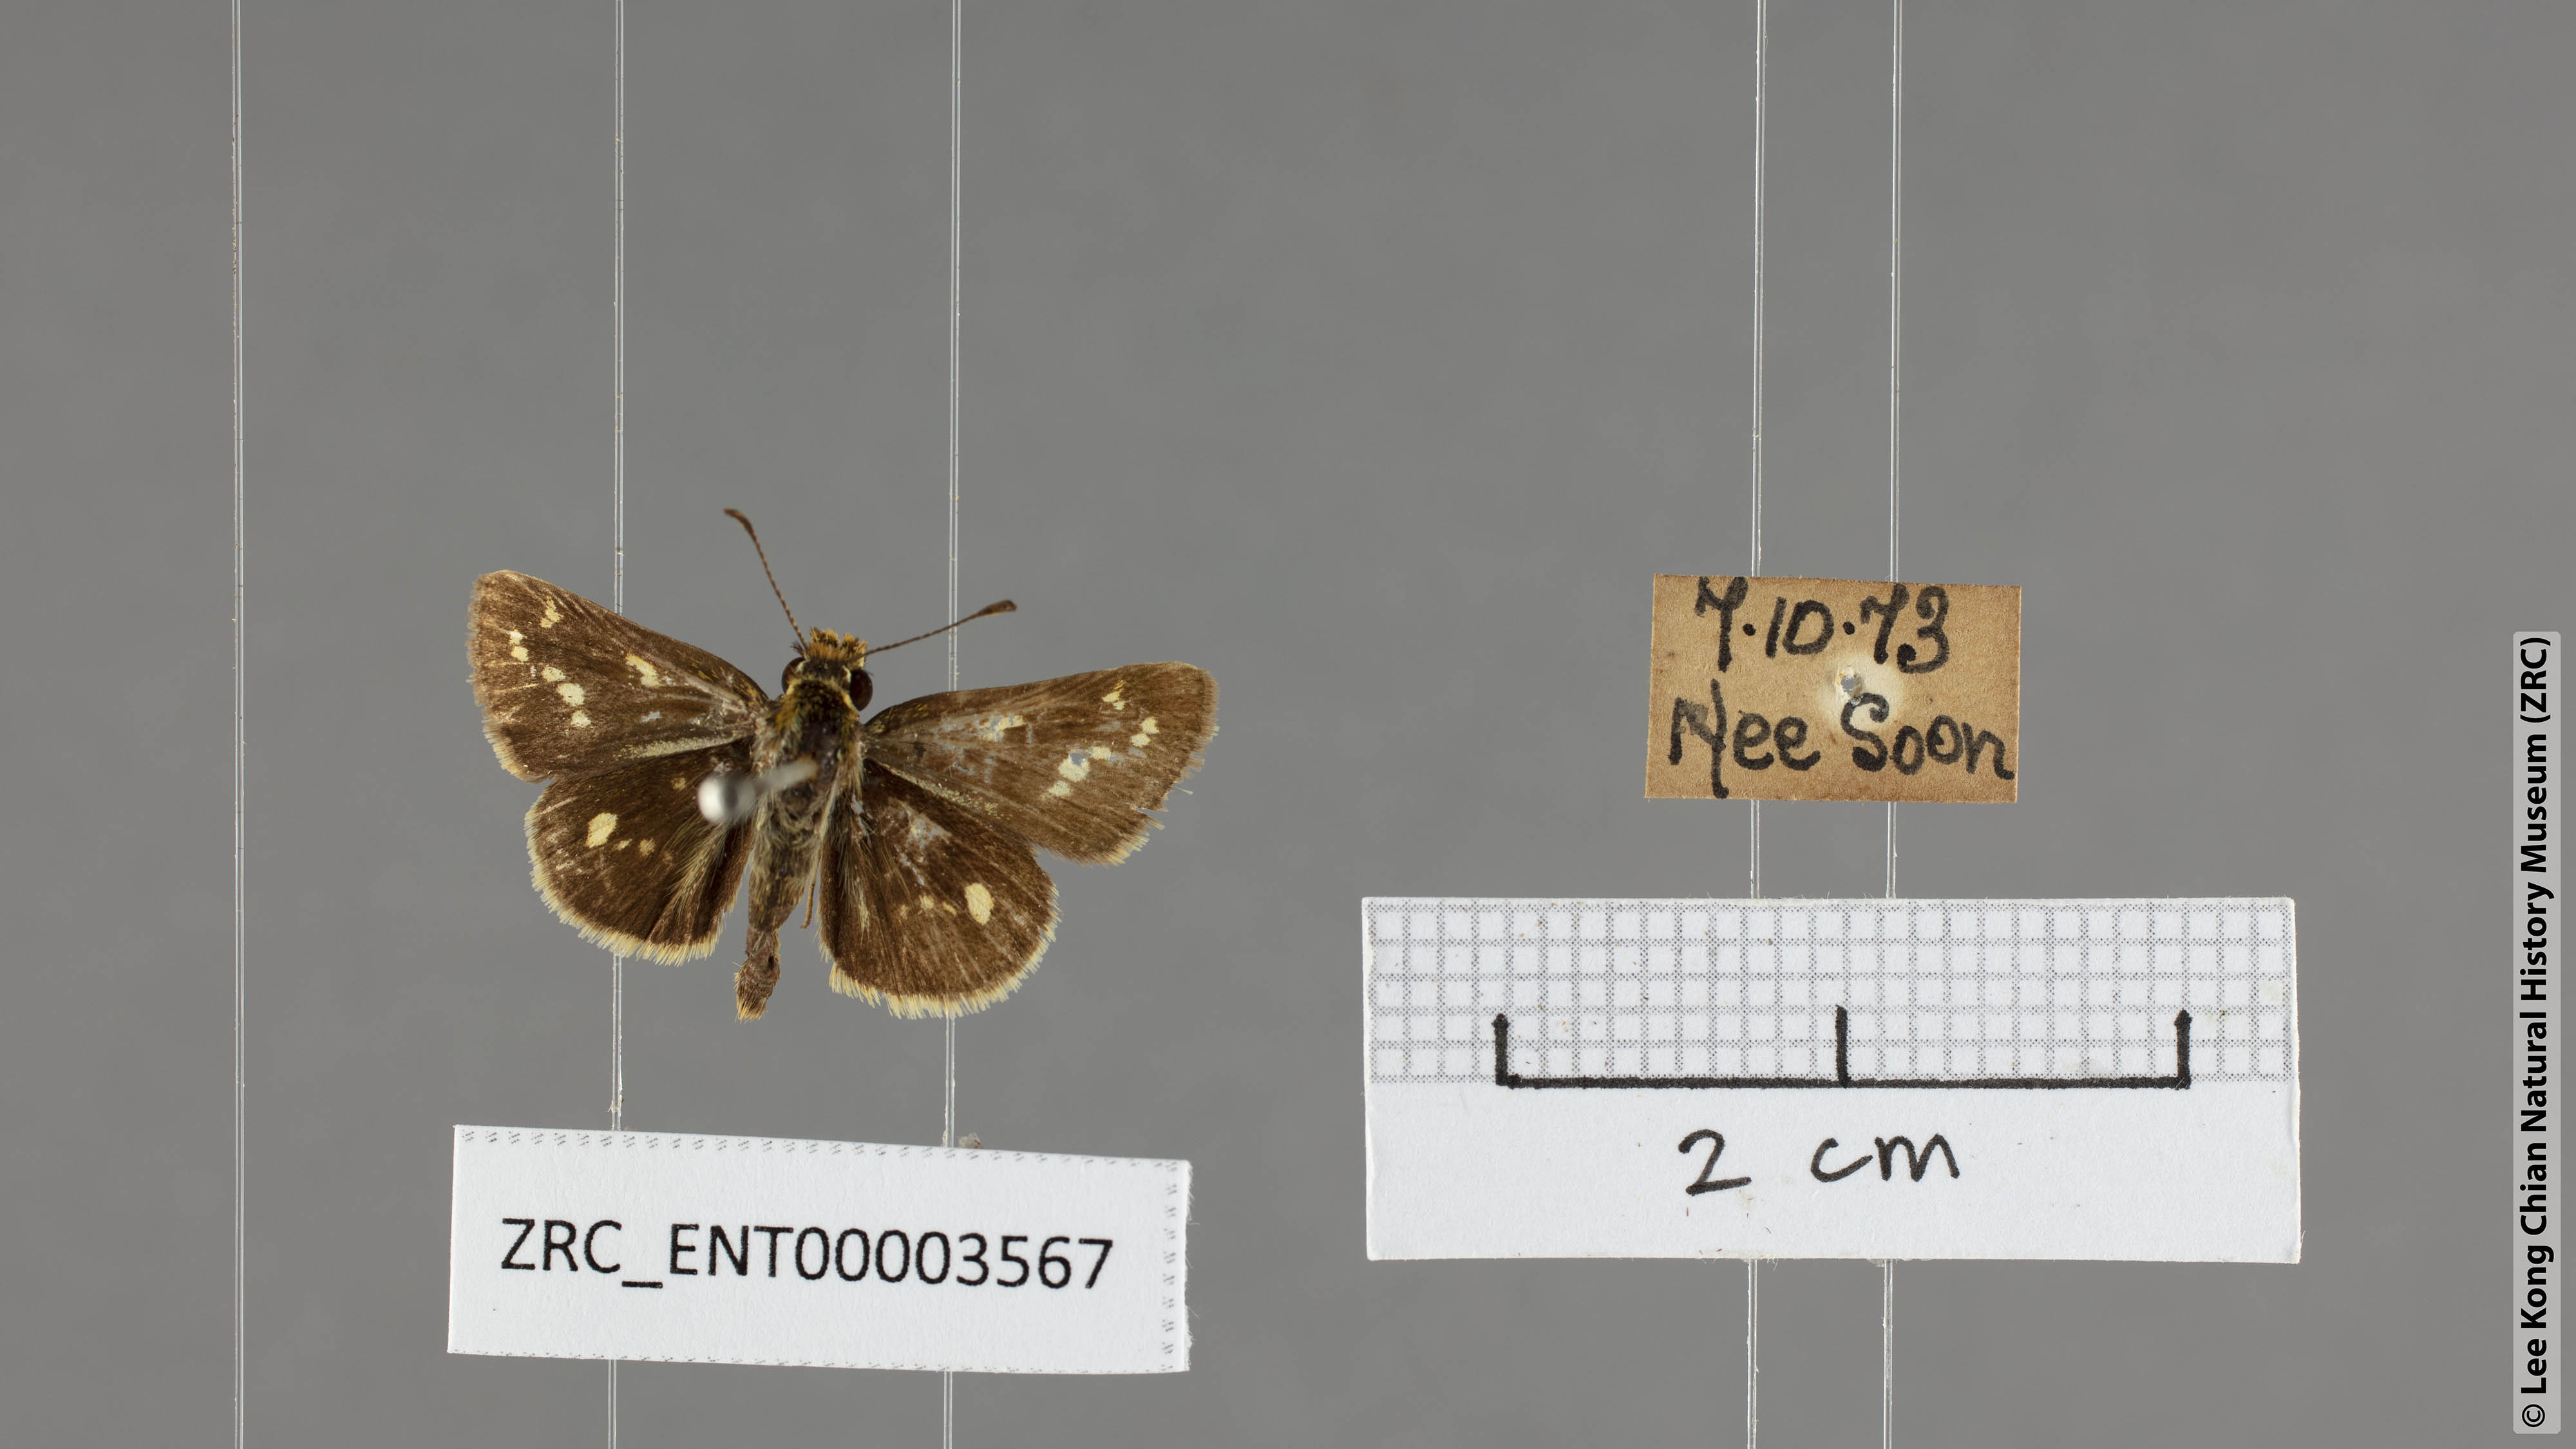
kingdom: Animalia
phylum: Arthropoda
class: Insecta
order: Lepidoptera
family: Hesperiidae
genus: Taractrocera
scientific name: Taractrocera ardonia
